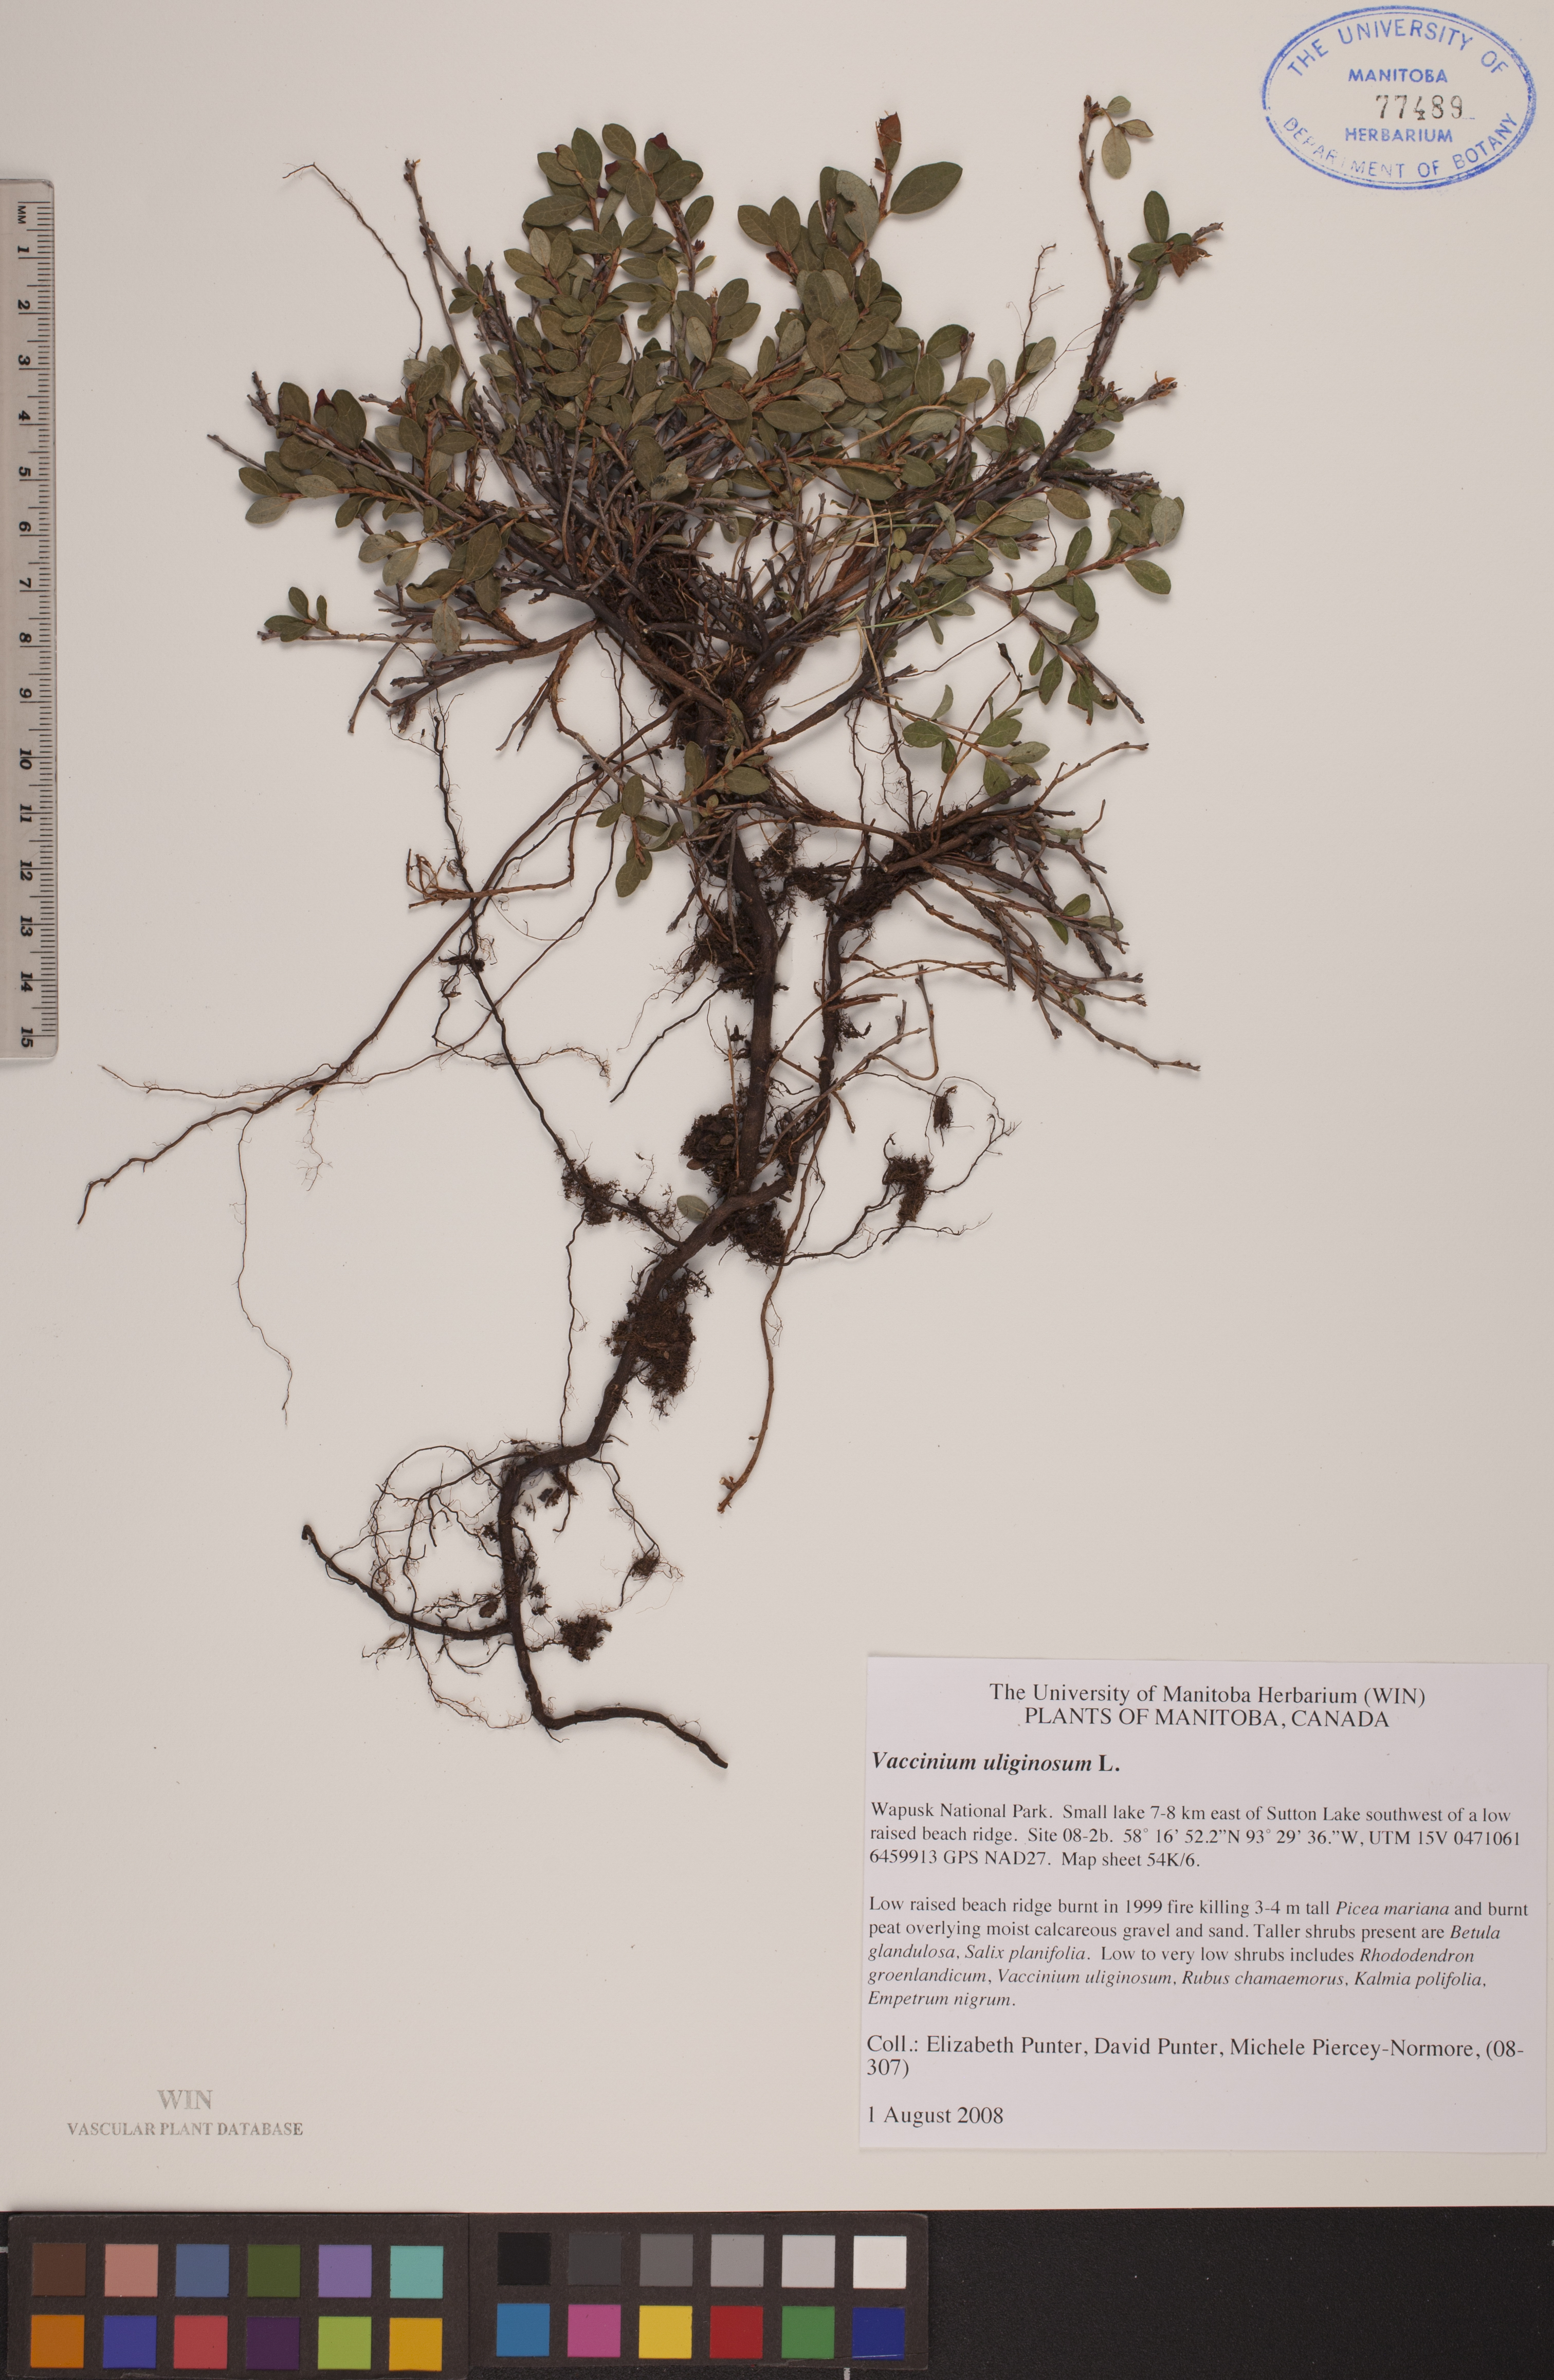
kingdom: Plantae
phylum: Tracheophyta
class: Magnoliopsida
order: Ericales
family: Ericaceae
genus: Vaccinium
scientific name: Vaccinium uliginosum
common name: Bog bilberry
